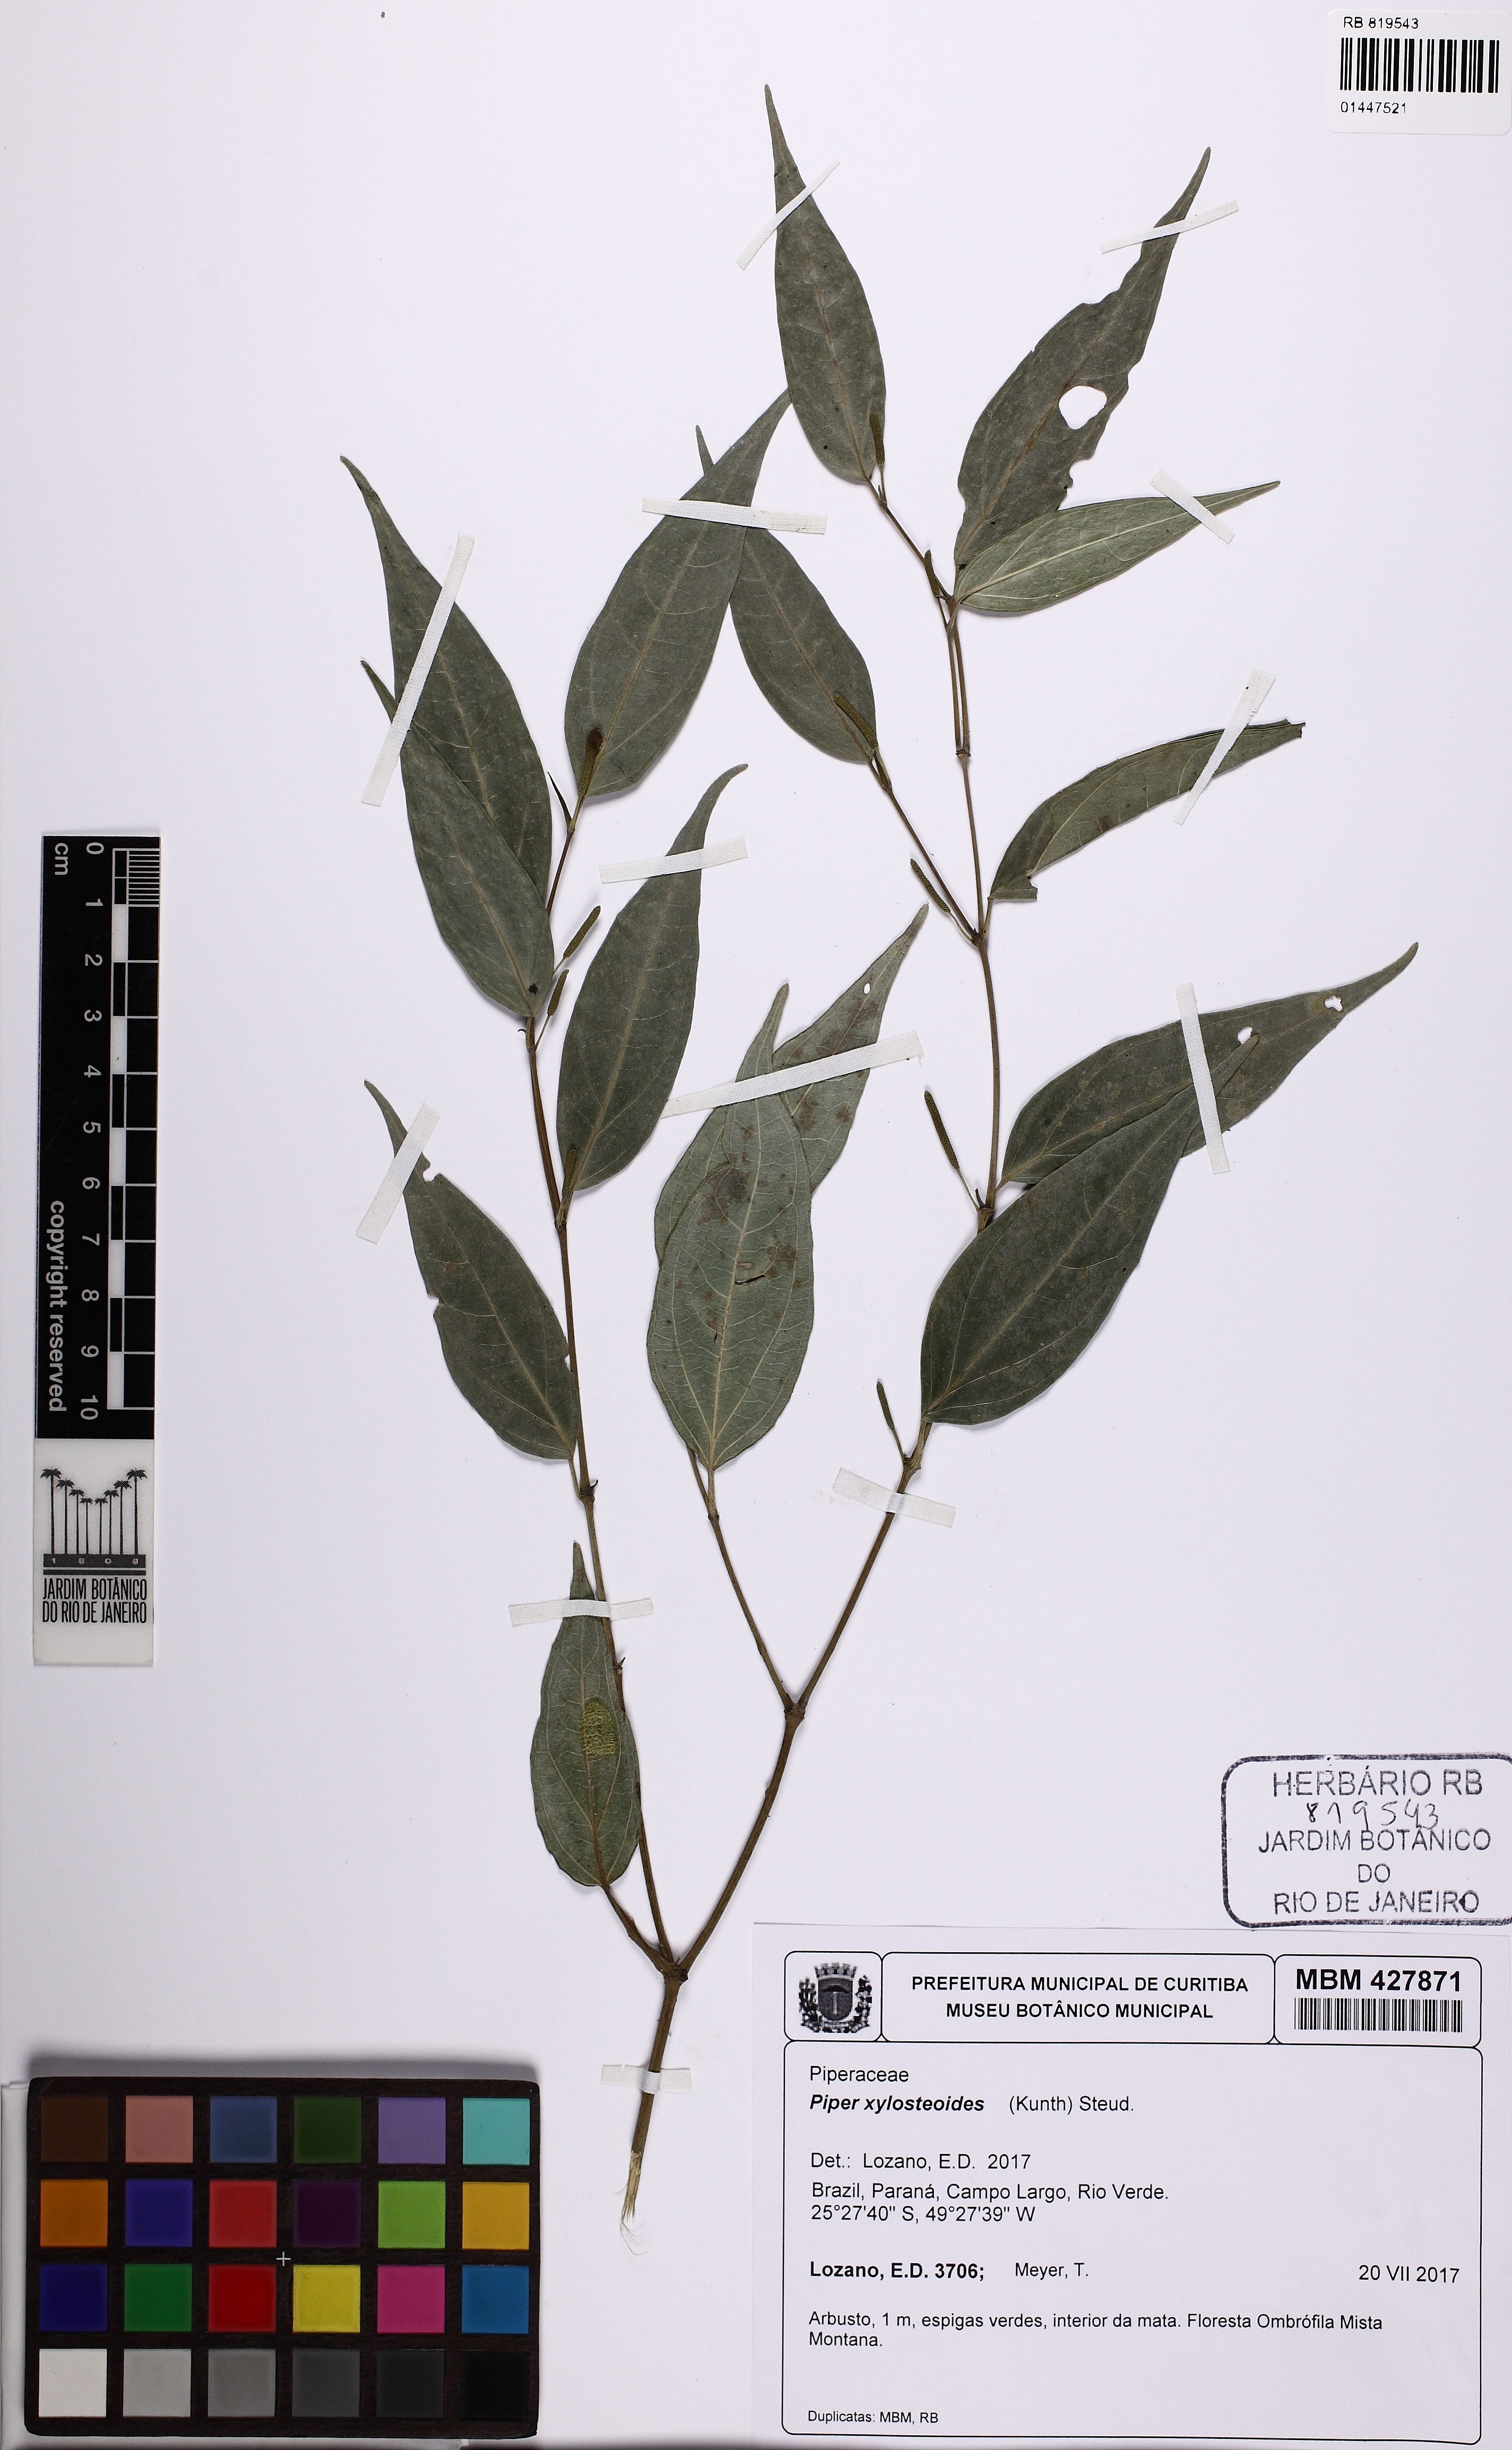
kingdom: Plantae
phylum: Tracheophyta
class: Magnoliopsida
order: Piperales
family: Piperaceae
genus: Piper
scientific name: Piper xylosteoides
